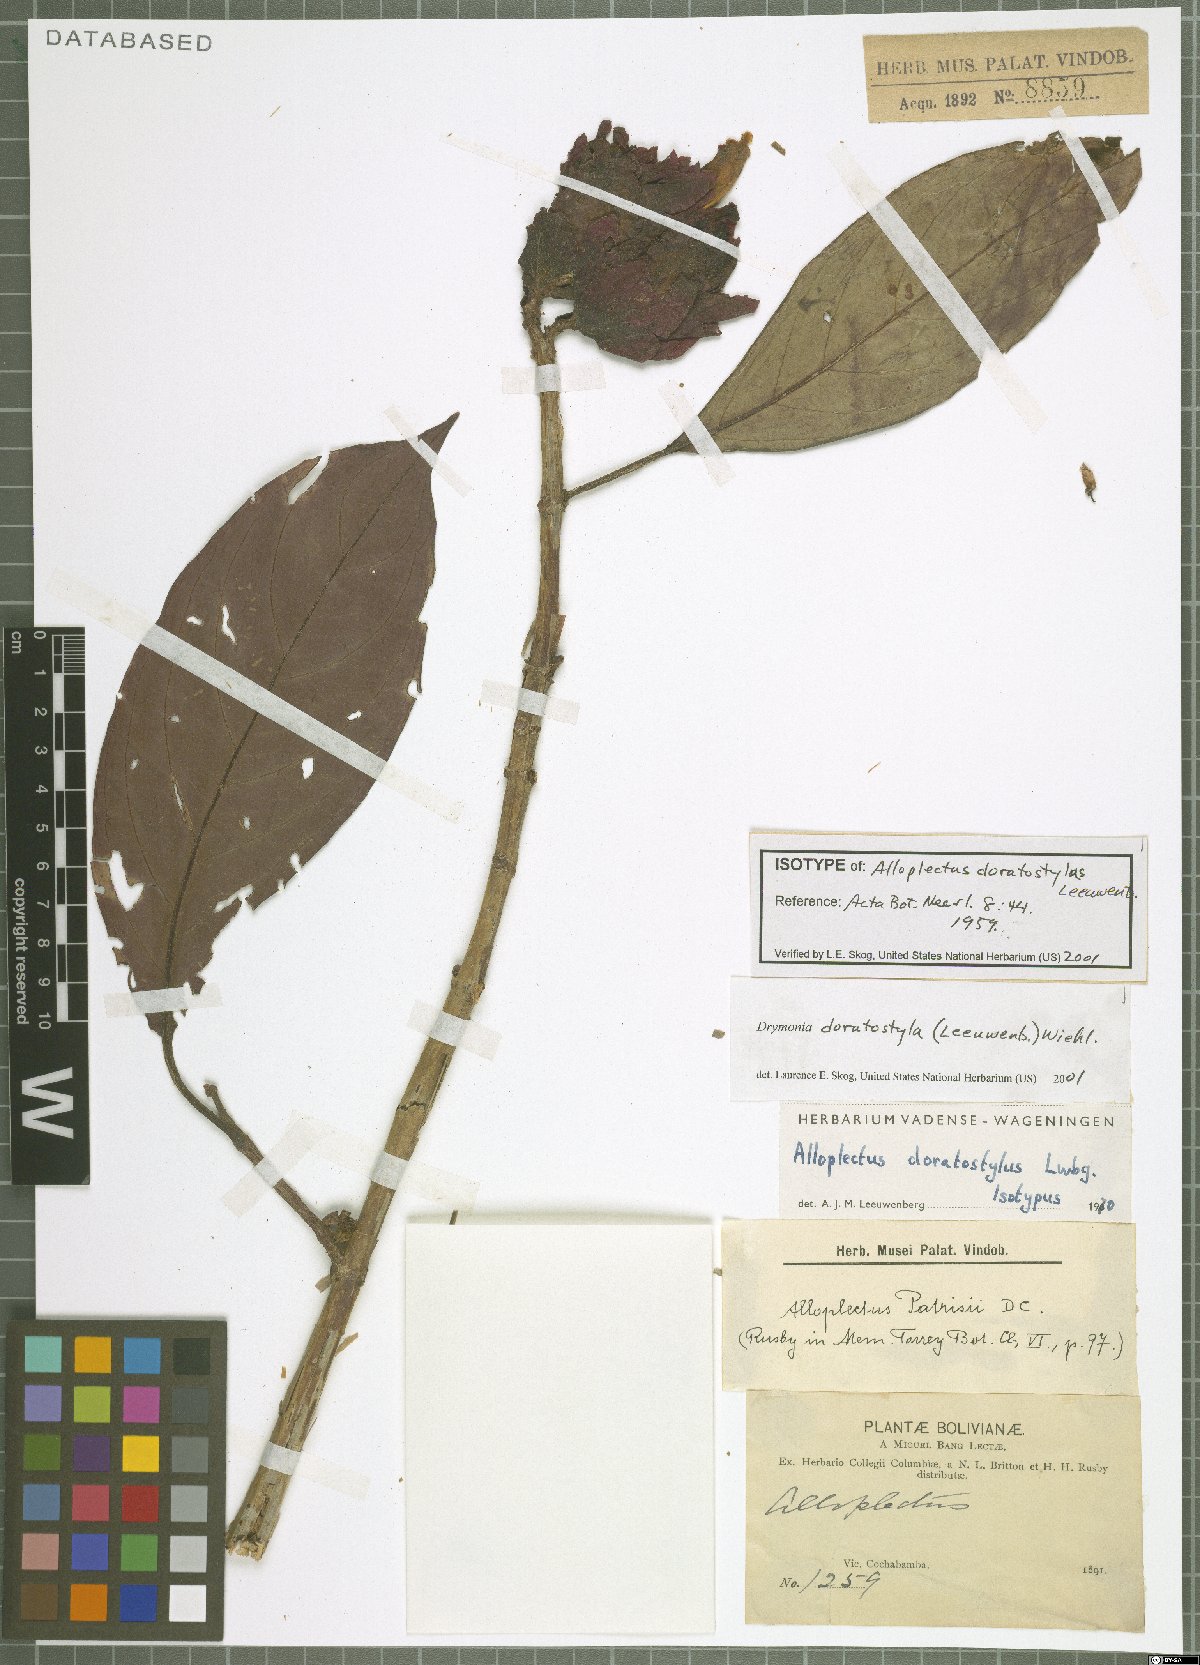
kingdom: Plantae
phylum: Tracheophyta
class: Magnoliopsida
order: Lamiales
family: Gesneriaceae
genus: Drymonia
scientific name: Drymonia doratostyla
